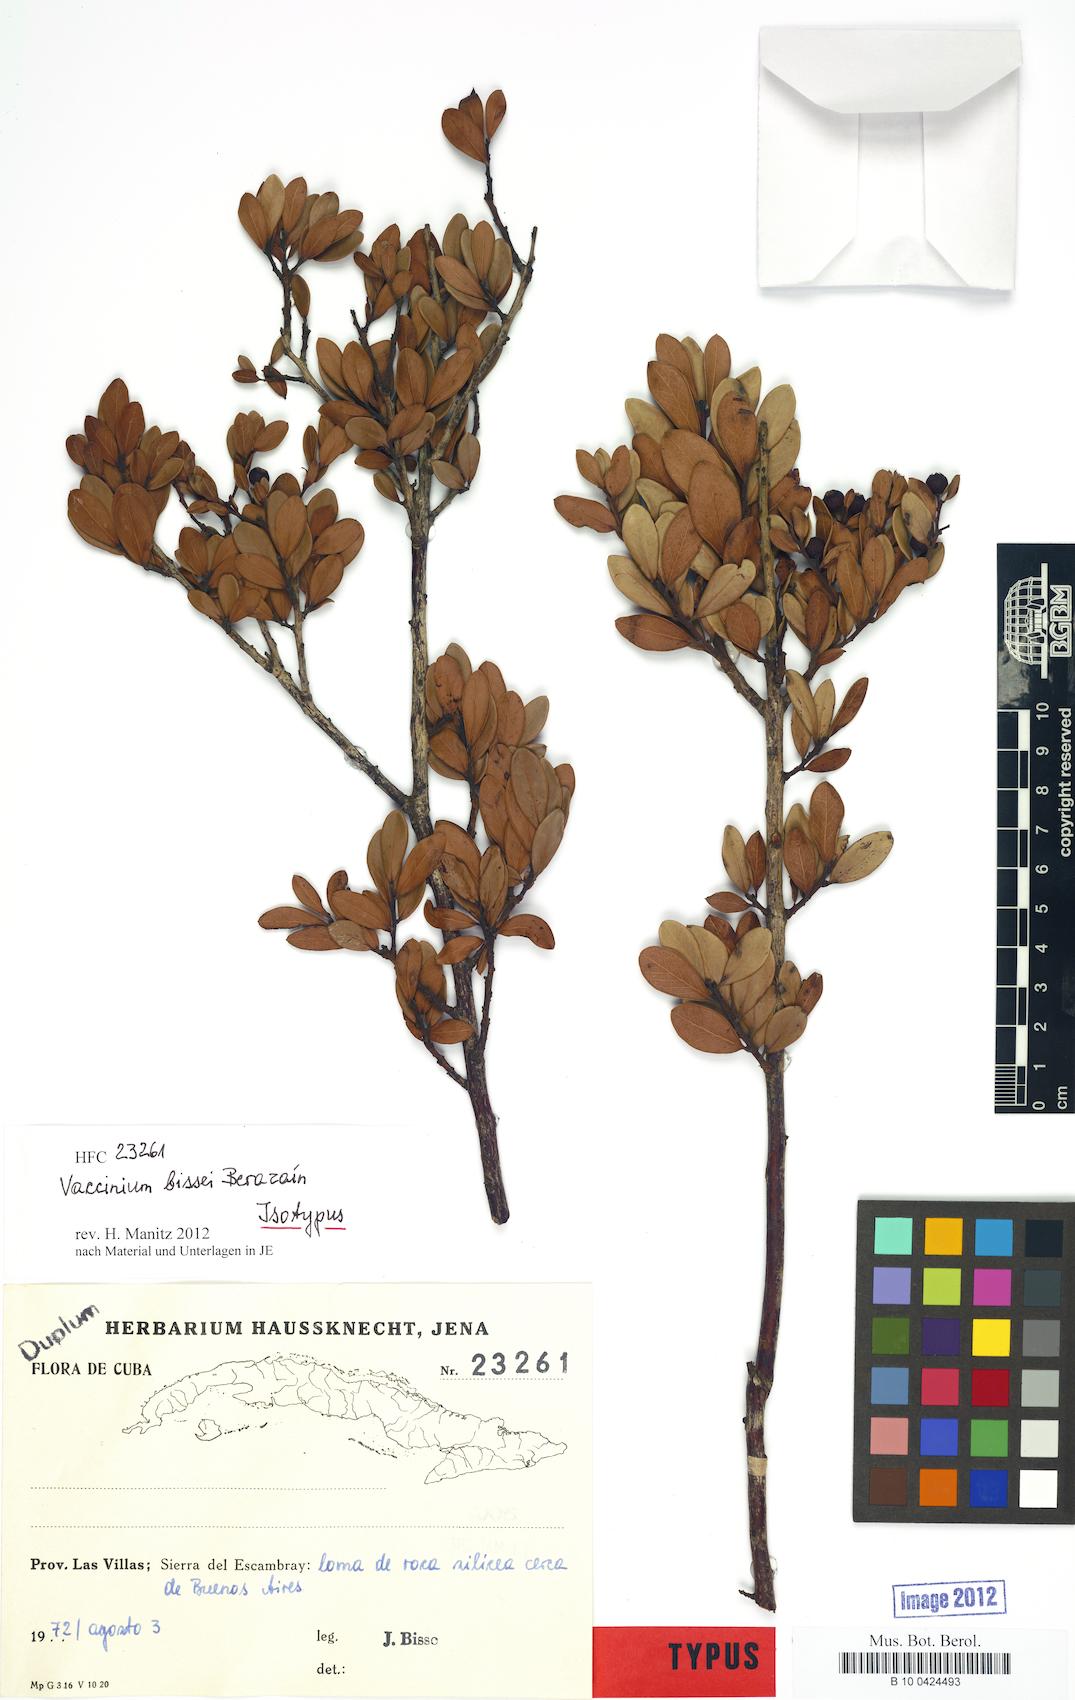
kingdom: Plantae
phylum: Tracheophyta
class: Magnoliopsida
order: Ericales
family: Ericaceae
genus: Vaccinium
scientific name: Vaccinium bissei
